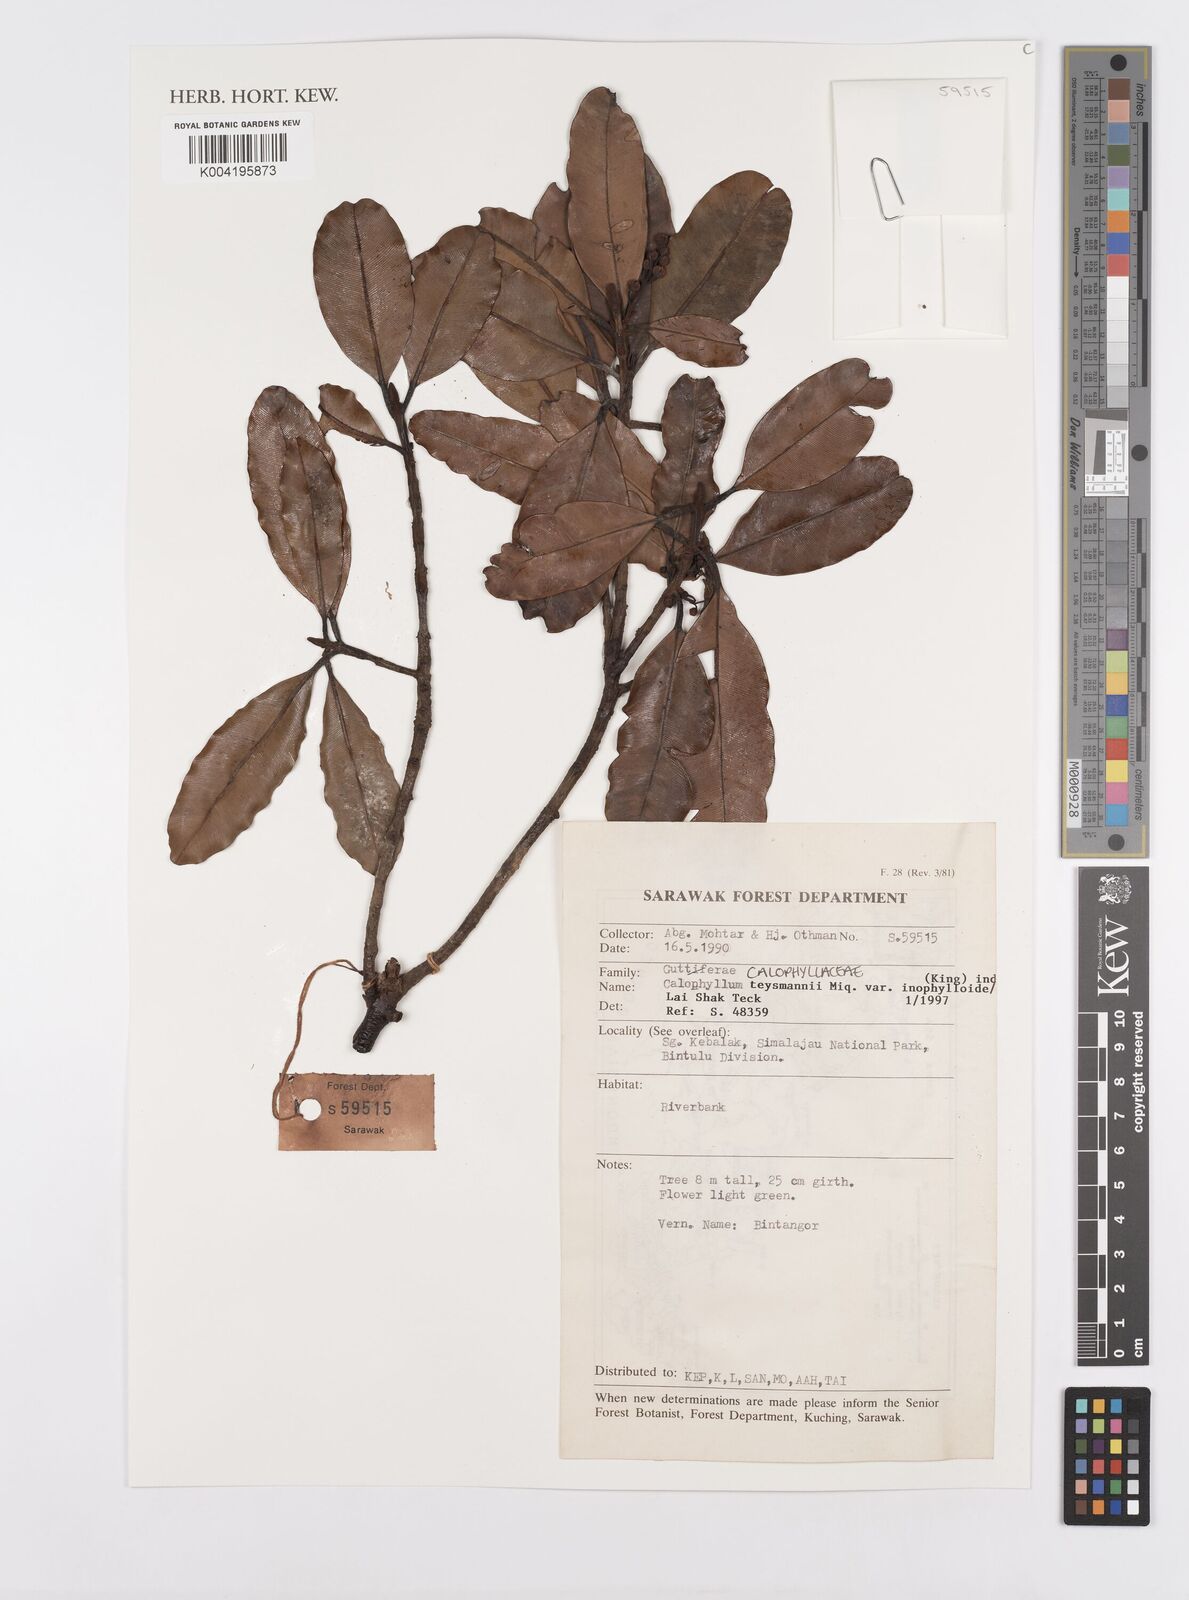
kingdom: Plantae
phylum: Tracheophyta
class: Magnoliopsida
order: Malpighiales
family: Calophyllaceae
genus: Calophyllum
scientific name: Calophyllum teysmannii
